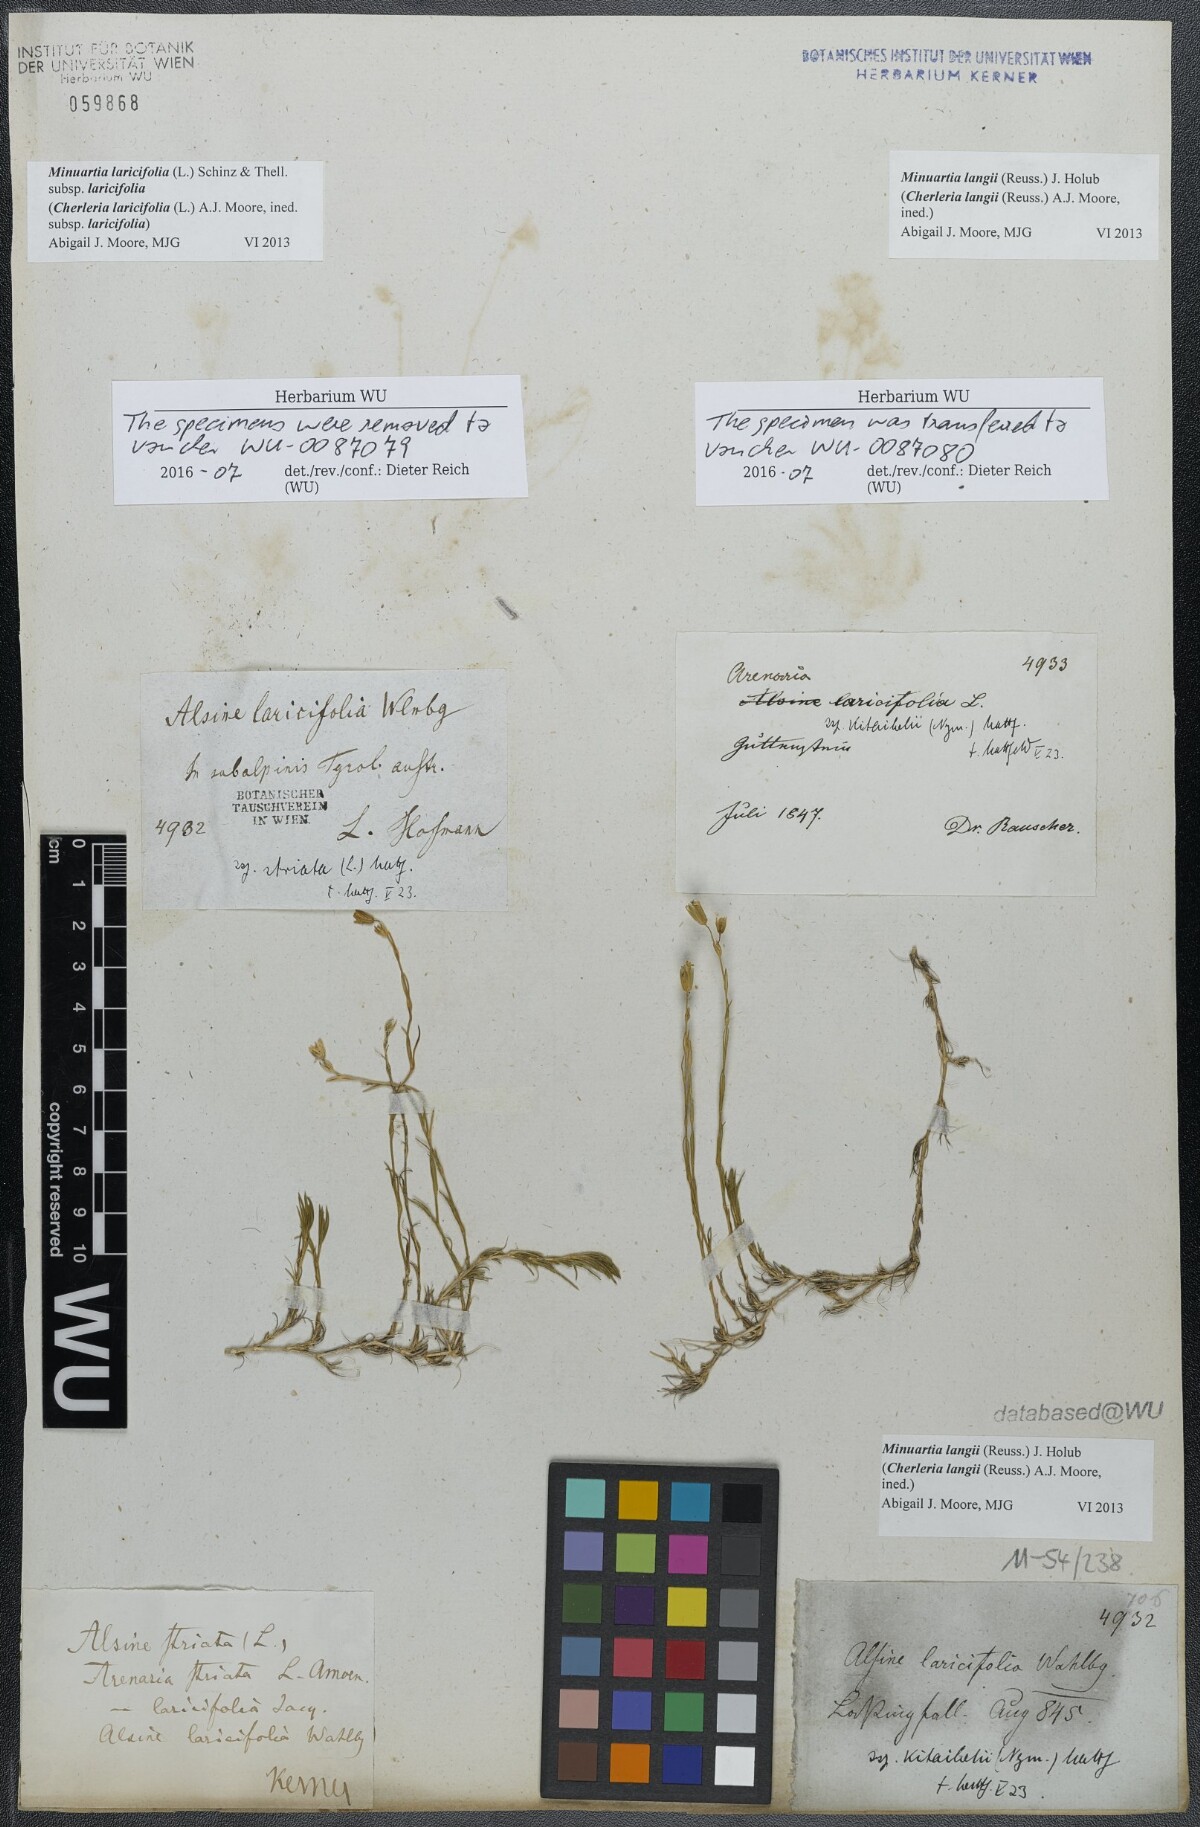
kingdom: Plantae
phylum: Tracheophyta
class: Magnoliopsida
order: Caryophyllales
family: Caryophyllaceae
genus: Cherleria
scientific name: Cherleria langii
